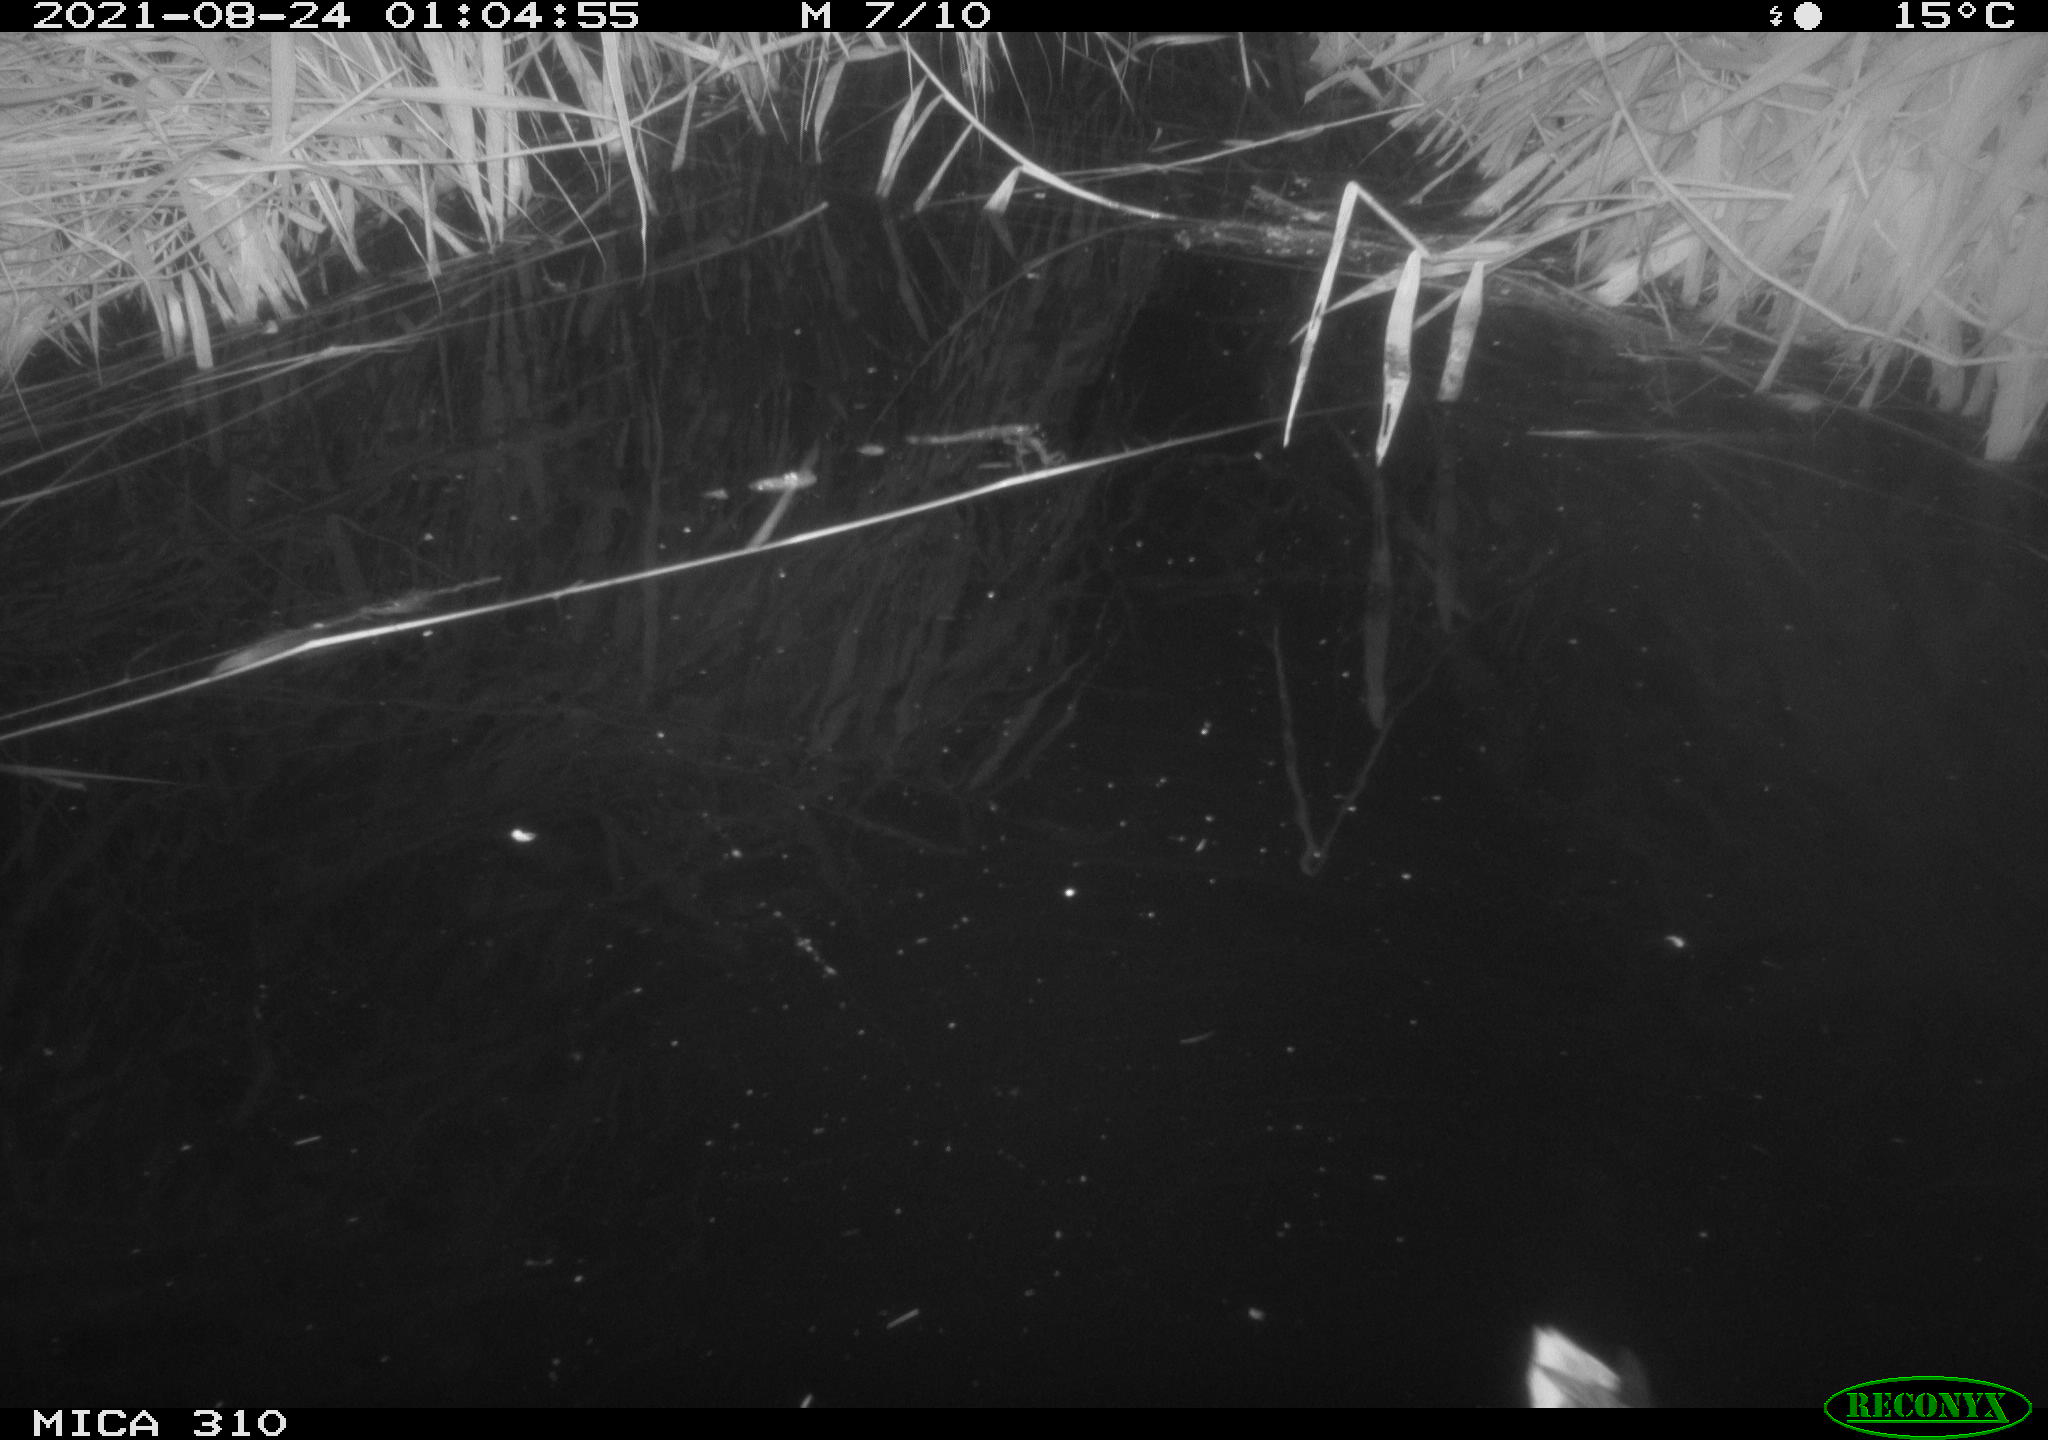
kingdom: Animalia
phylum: Chordata
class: Aves
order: Anseriformes
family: Anatidae
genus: Anas
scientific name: Anas platyrhynchos
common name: Mallard
